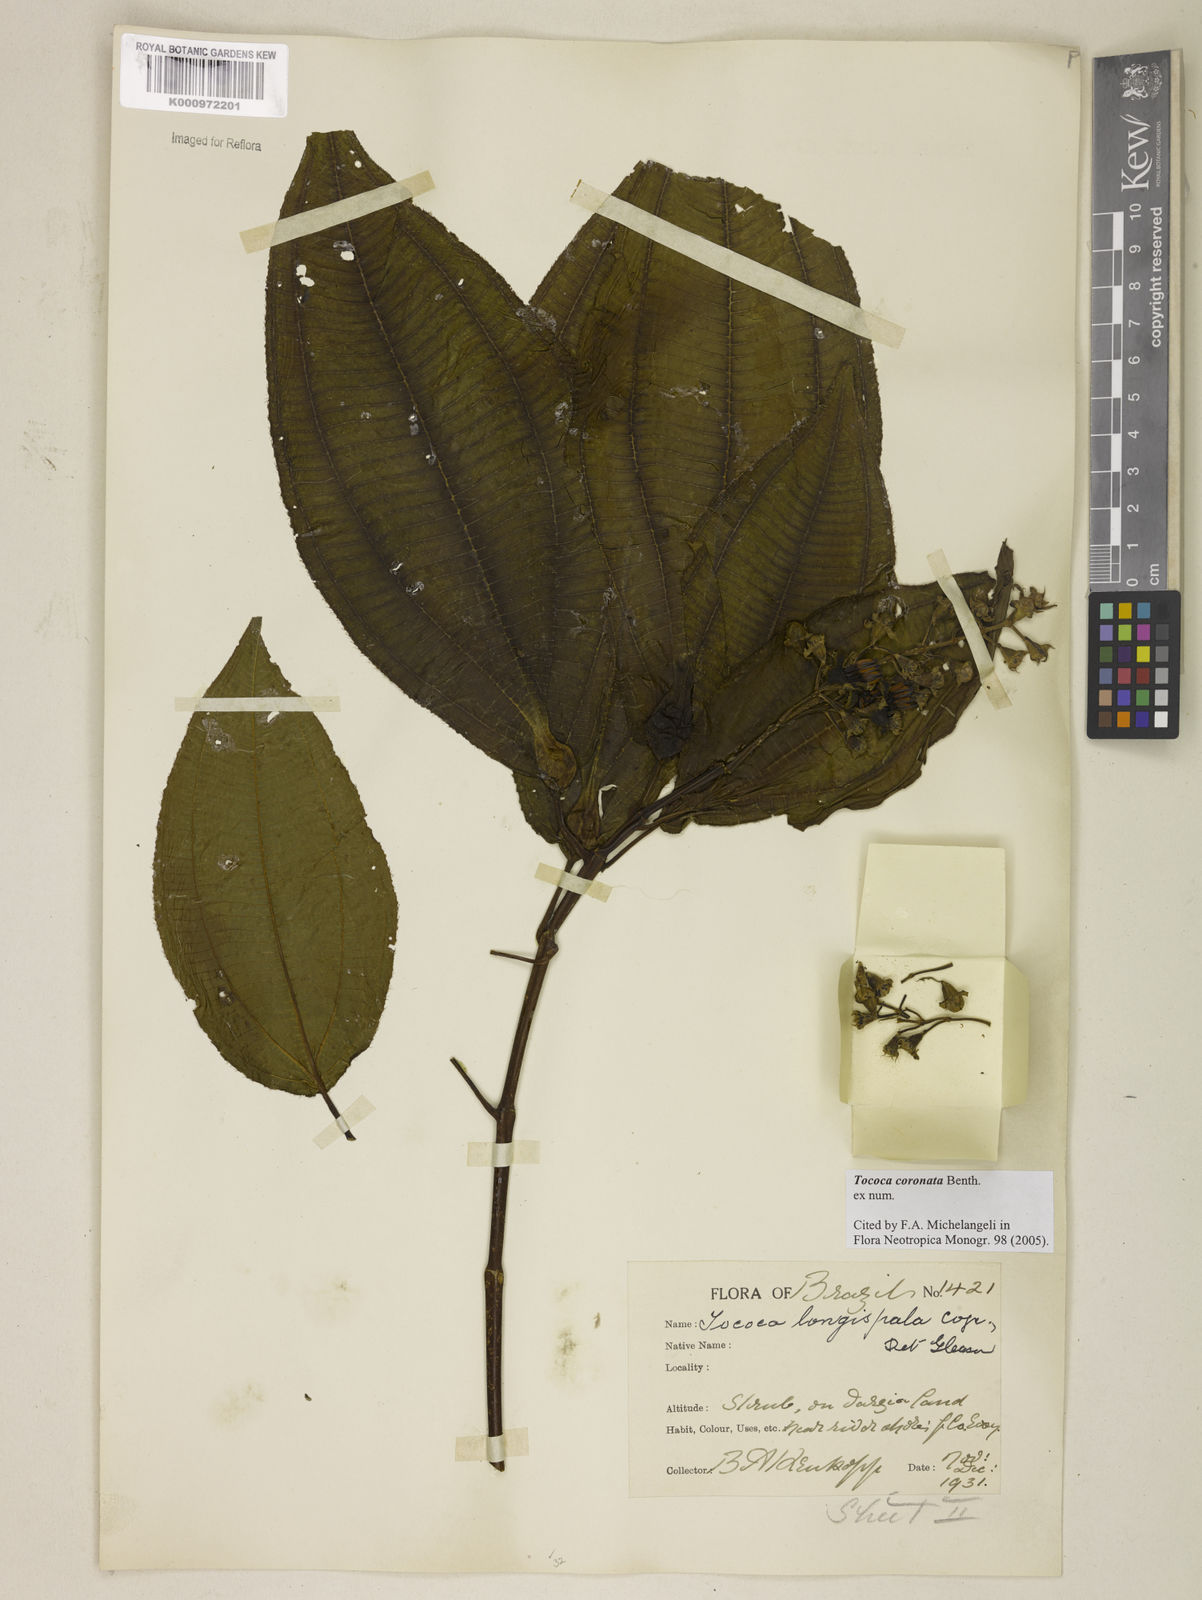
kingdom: Plantae
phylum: Tracheophyta
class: Magnoliopsida
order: Myrtales
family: Melastomataceae
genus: Miconia
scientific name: Miconia tococoronata
